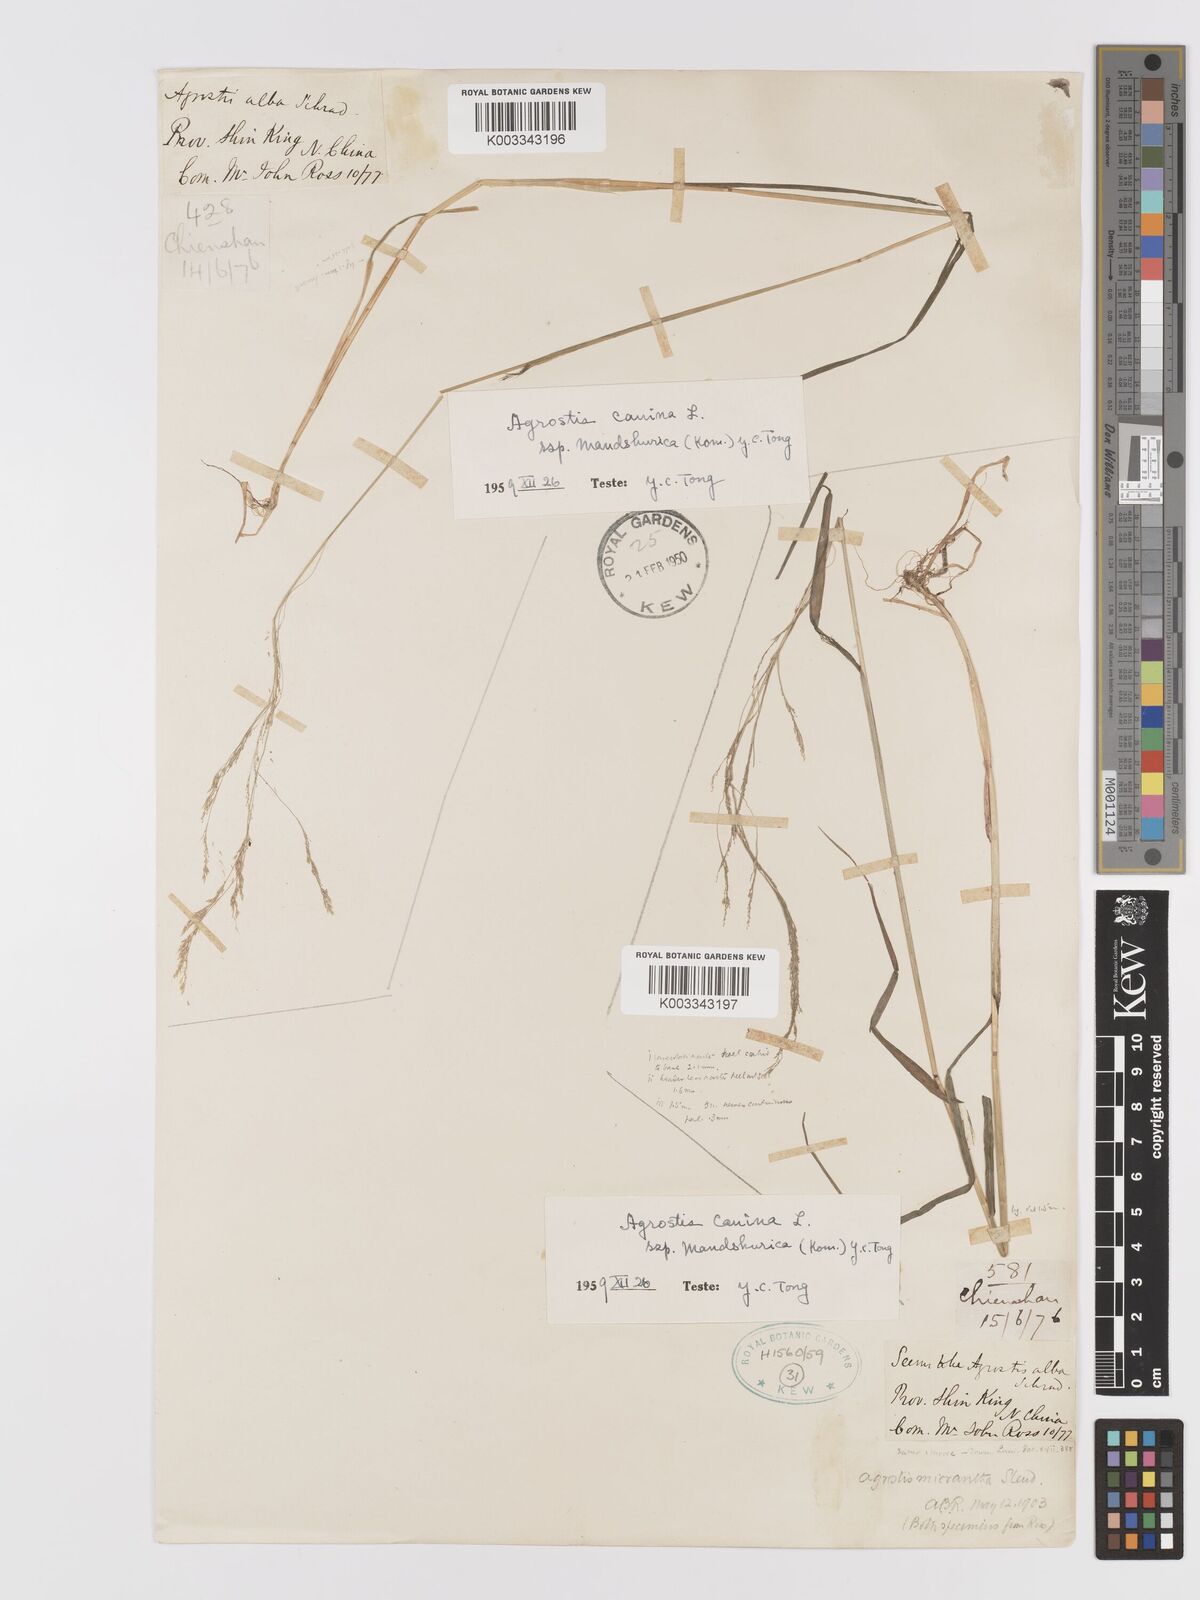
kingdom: Plantae
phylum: Tracheophyta
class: Liliopsida
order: Poales
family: Poaceae
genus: Agrostis
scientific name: Agrostis canina
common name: Velvet bent
